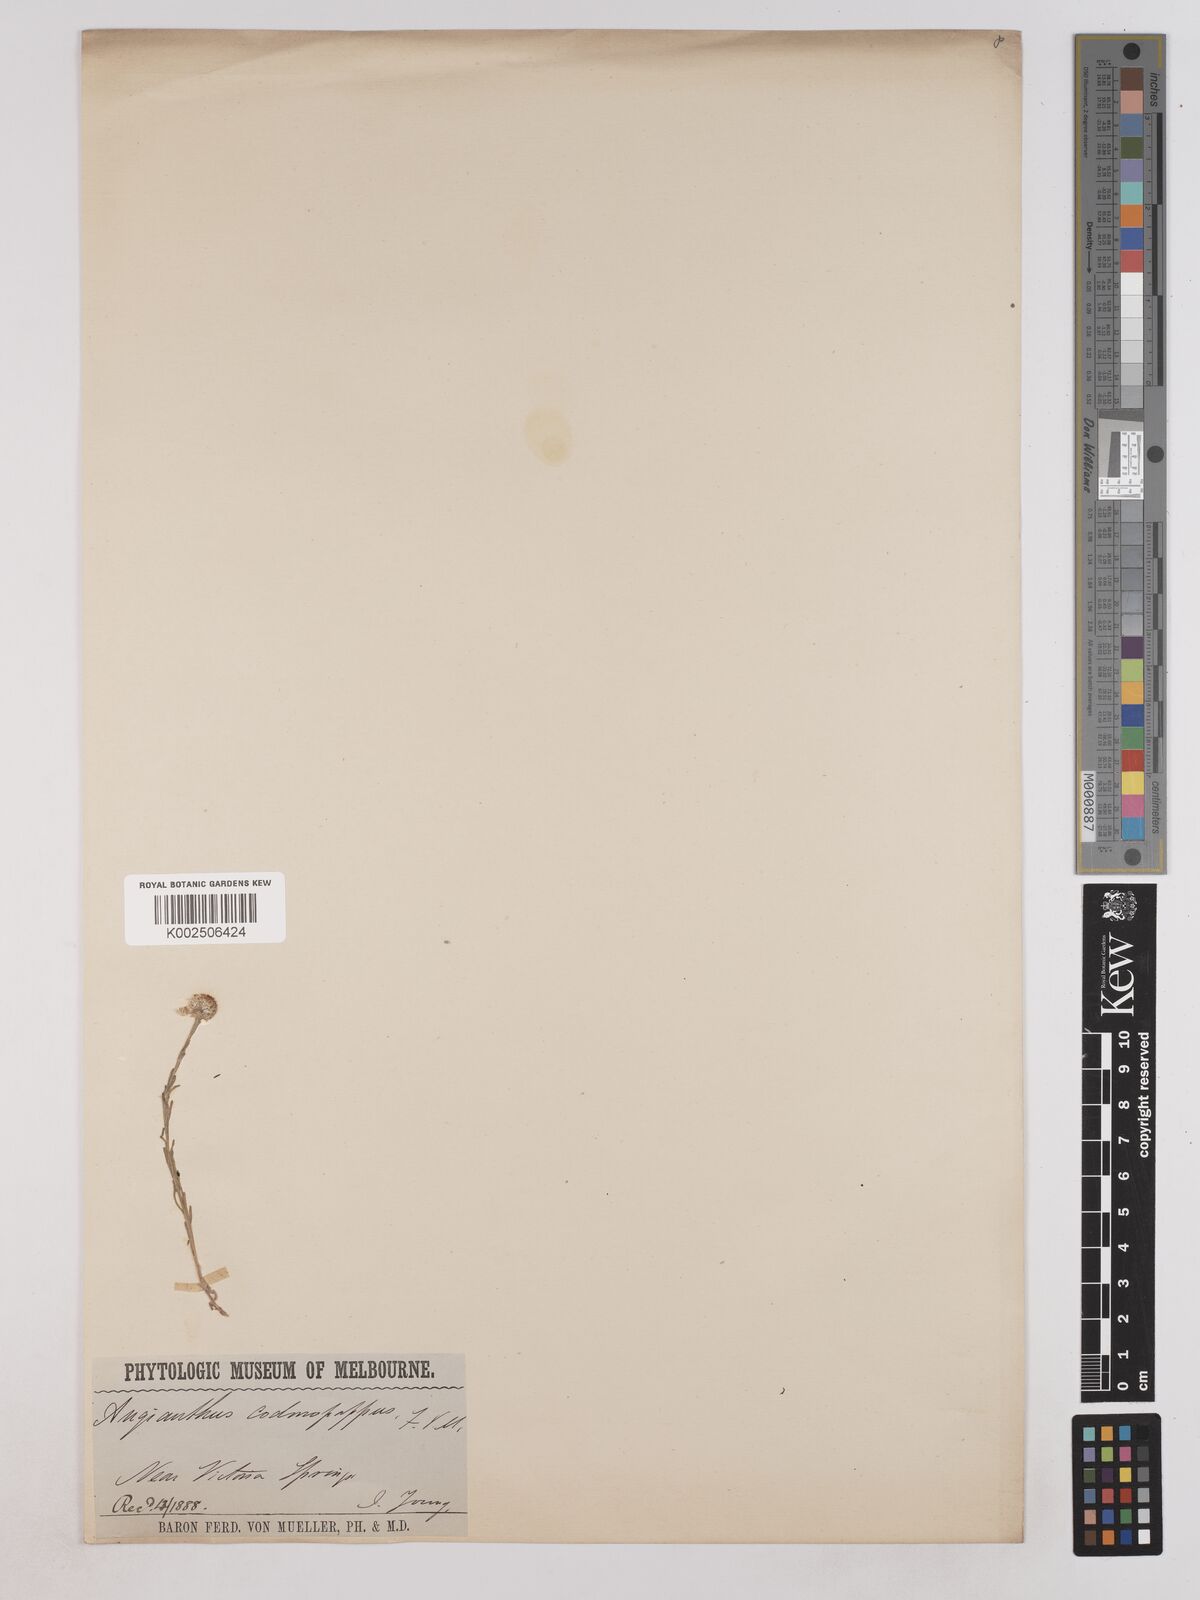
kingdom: Plantae
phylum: Tracheophyta
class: Magnoliopsida
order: Asterales
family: Asteraceae
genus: Trichanthodium
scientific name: Trichanthodium skirrophorum
